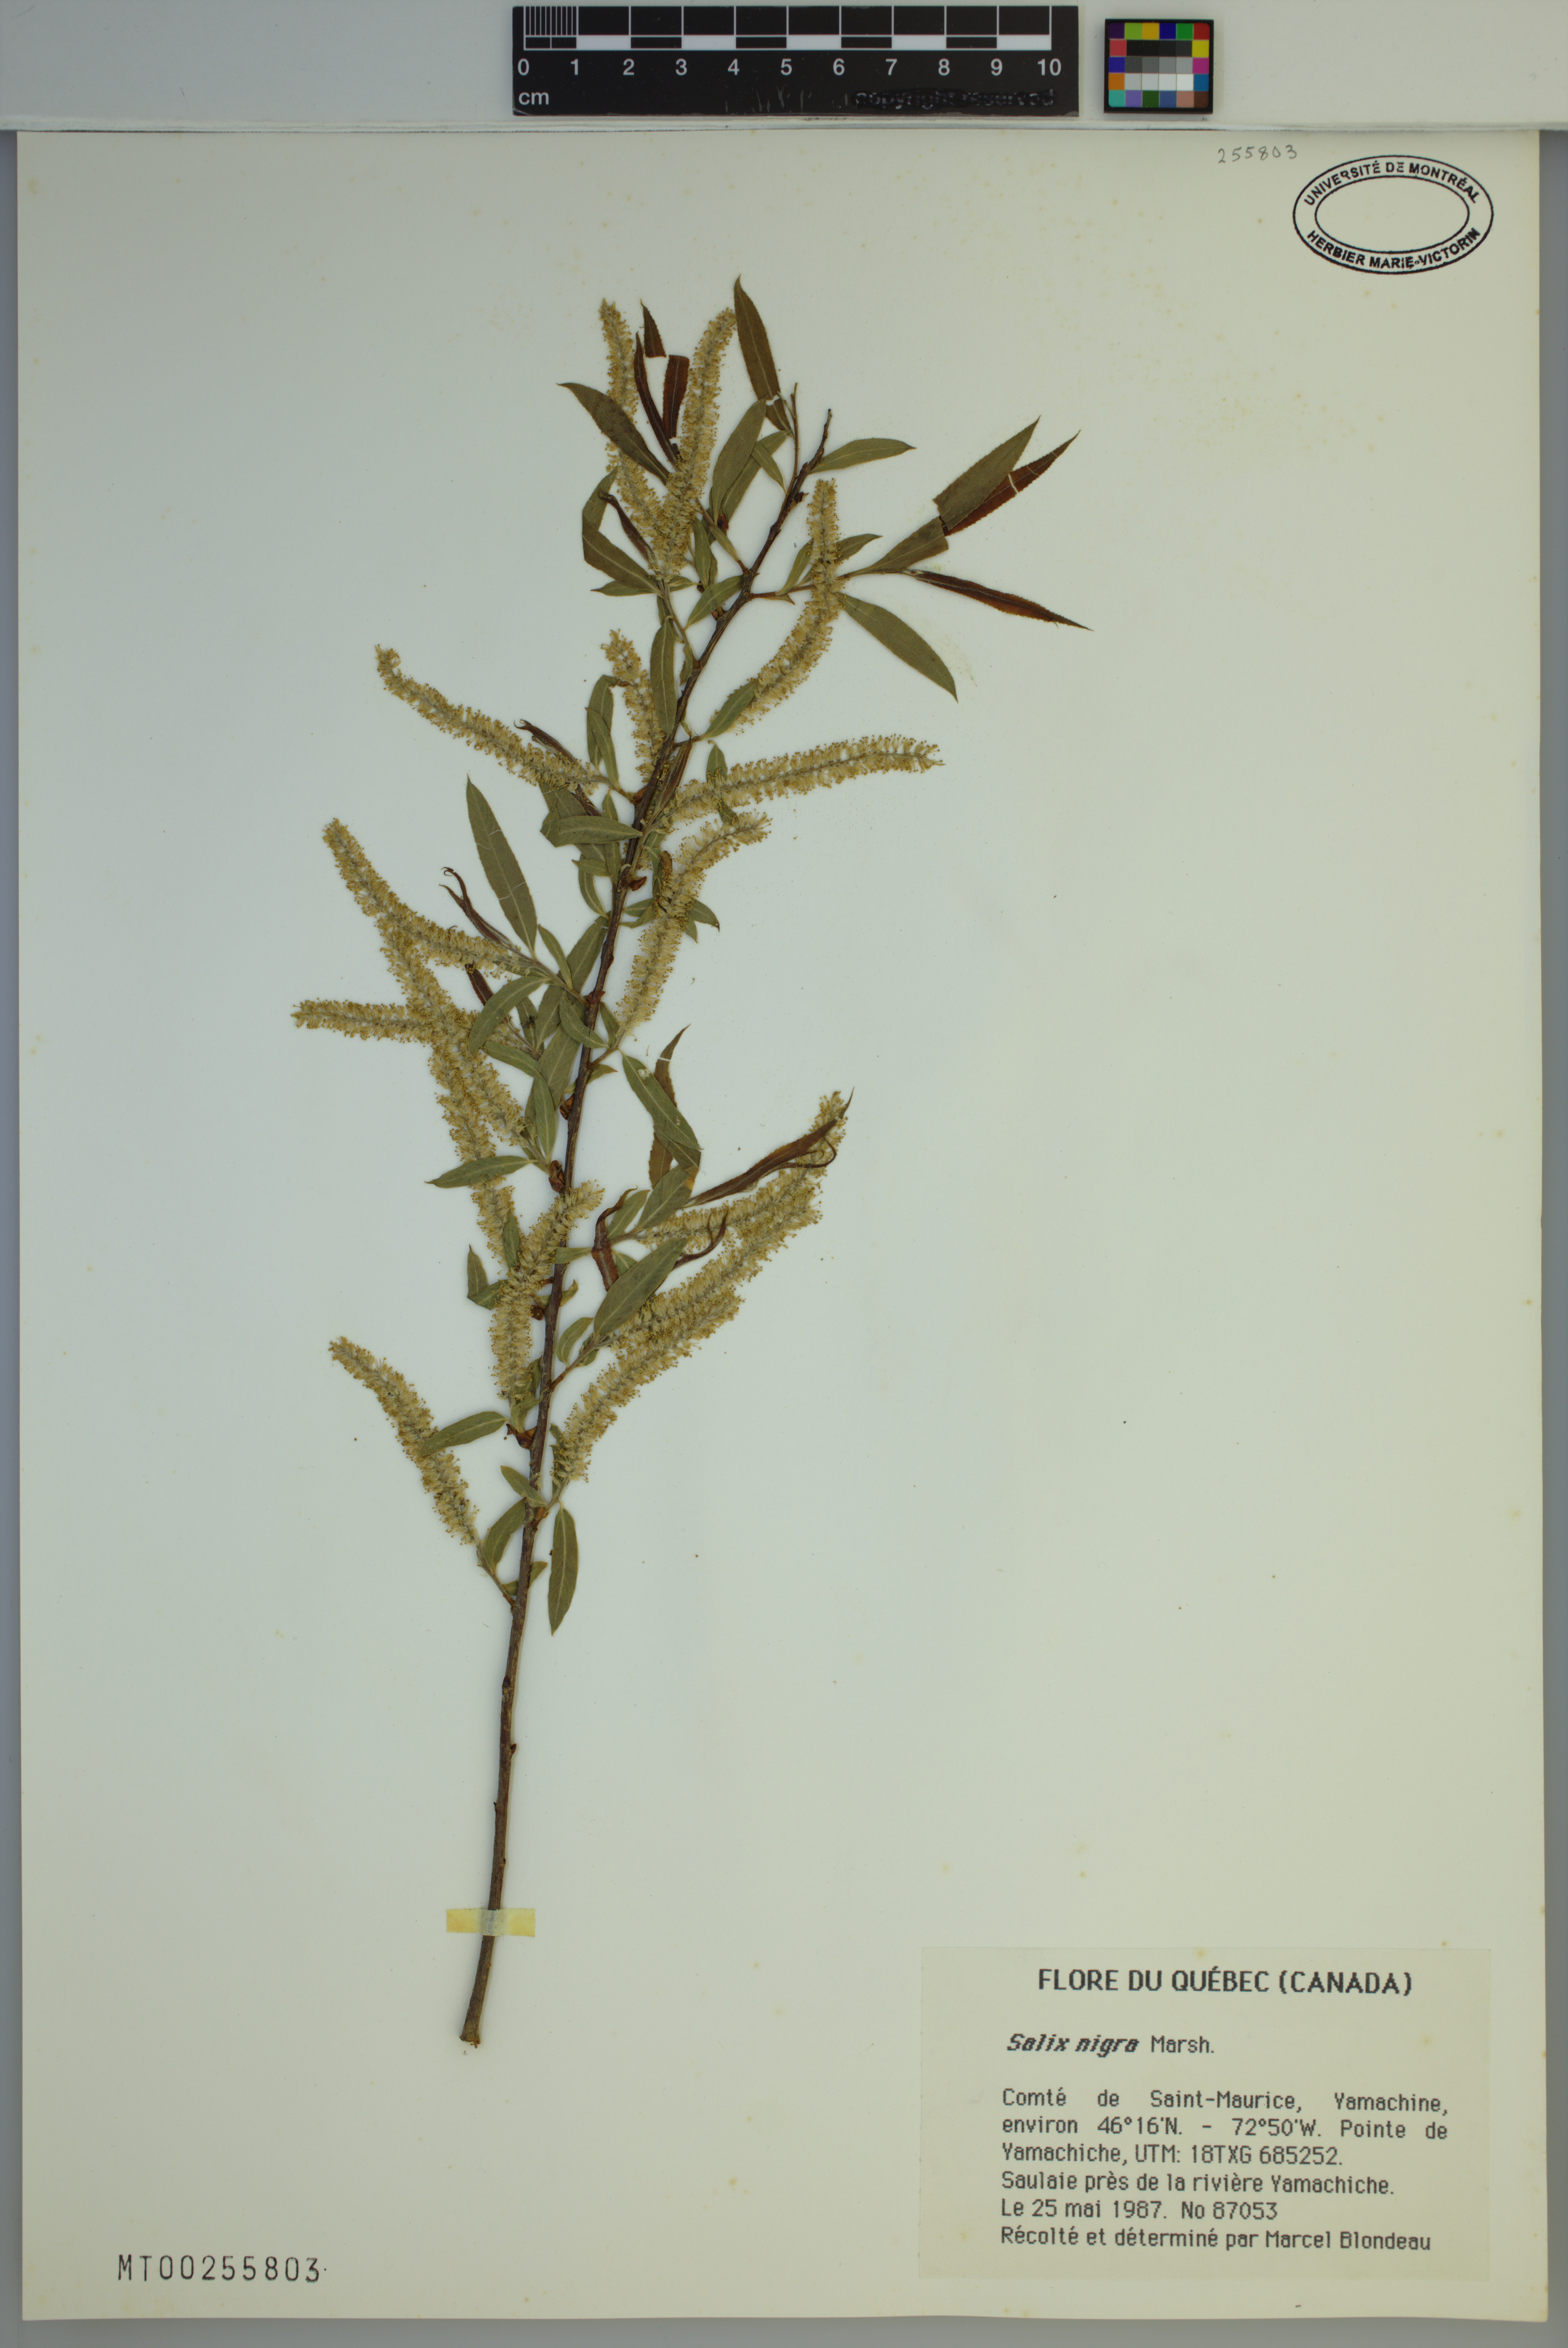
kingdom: Plantae
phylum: Tracheophyta
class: Magnoliopsida
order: Malpighiales
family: Salicaceae
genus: Salix
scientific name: Salix nigra
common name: Black willow
